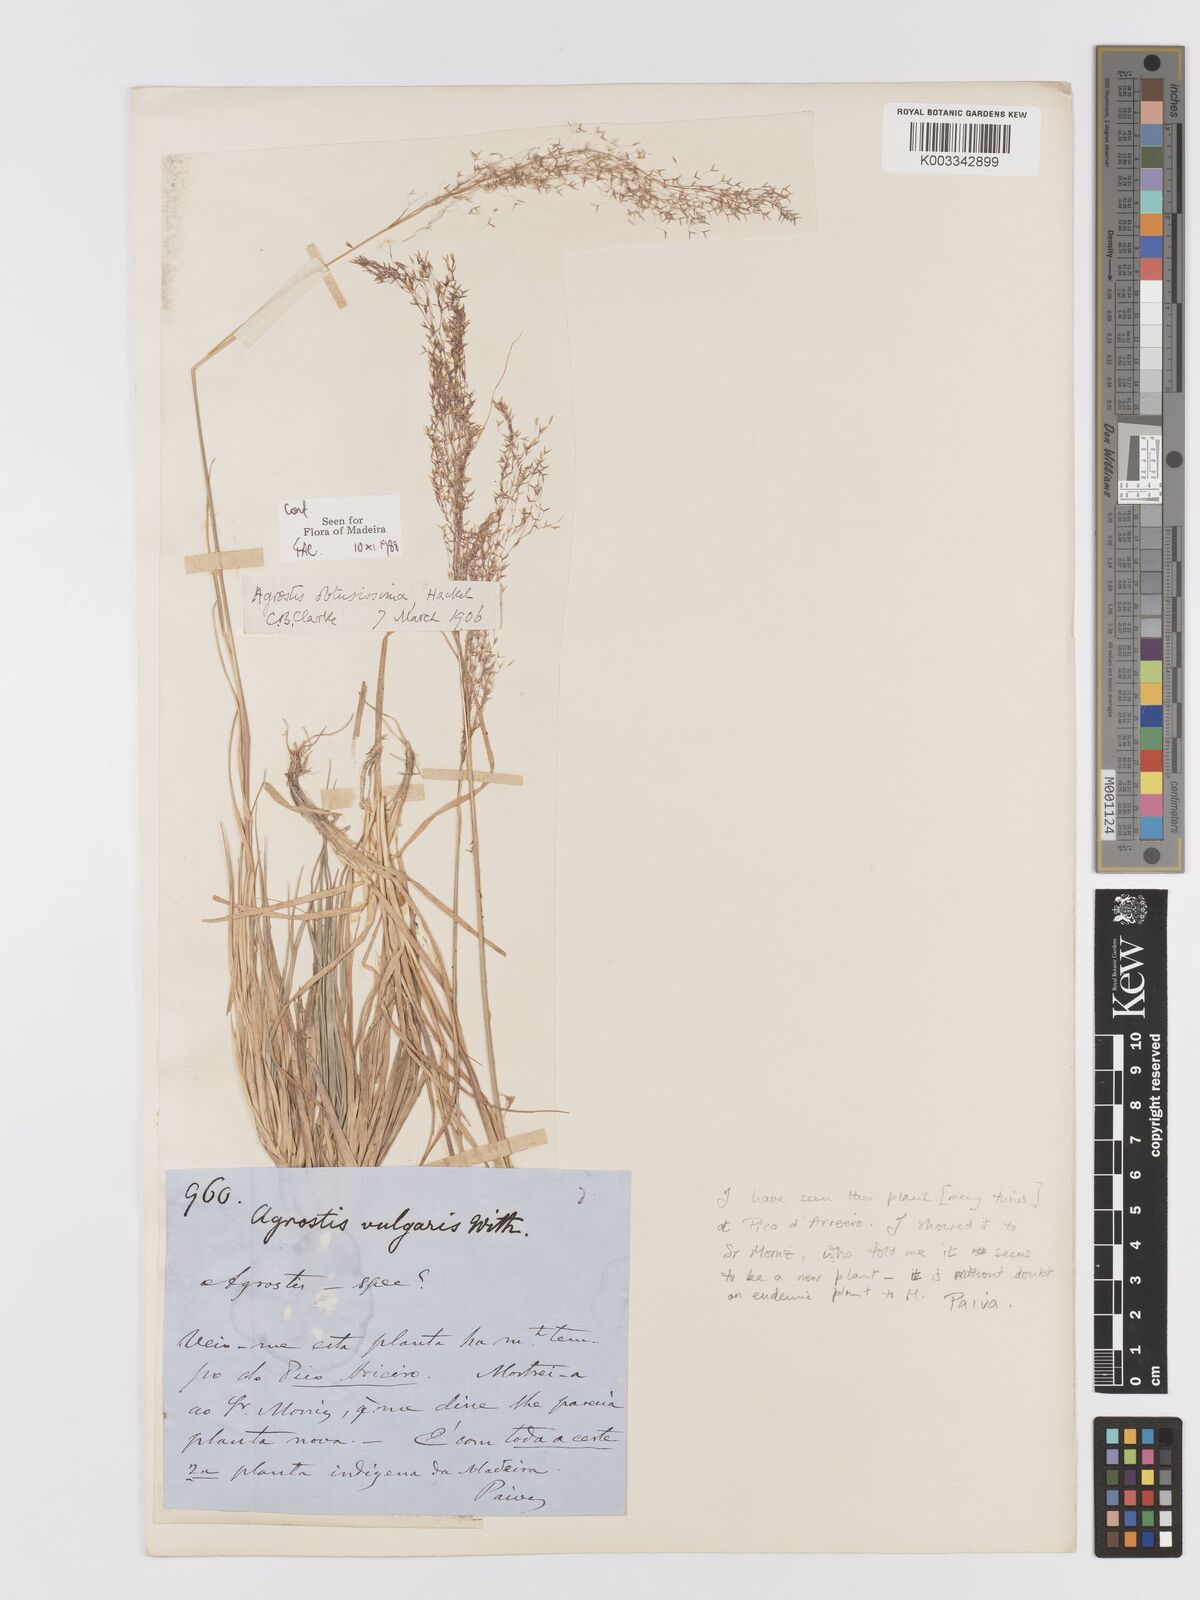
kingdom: Plantae
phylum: Tracheophyta
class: Liliopsida
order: Poales
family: Poaceae
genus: Agrostis
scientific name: Agrostis reuteri
